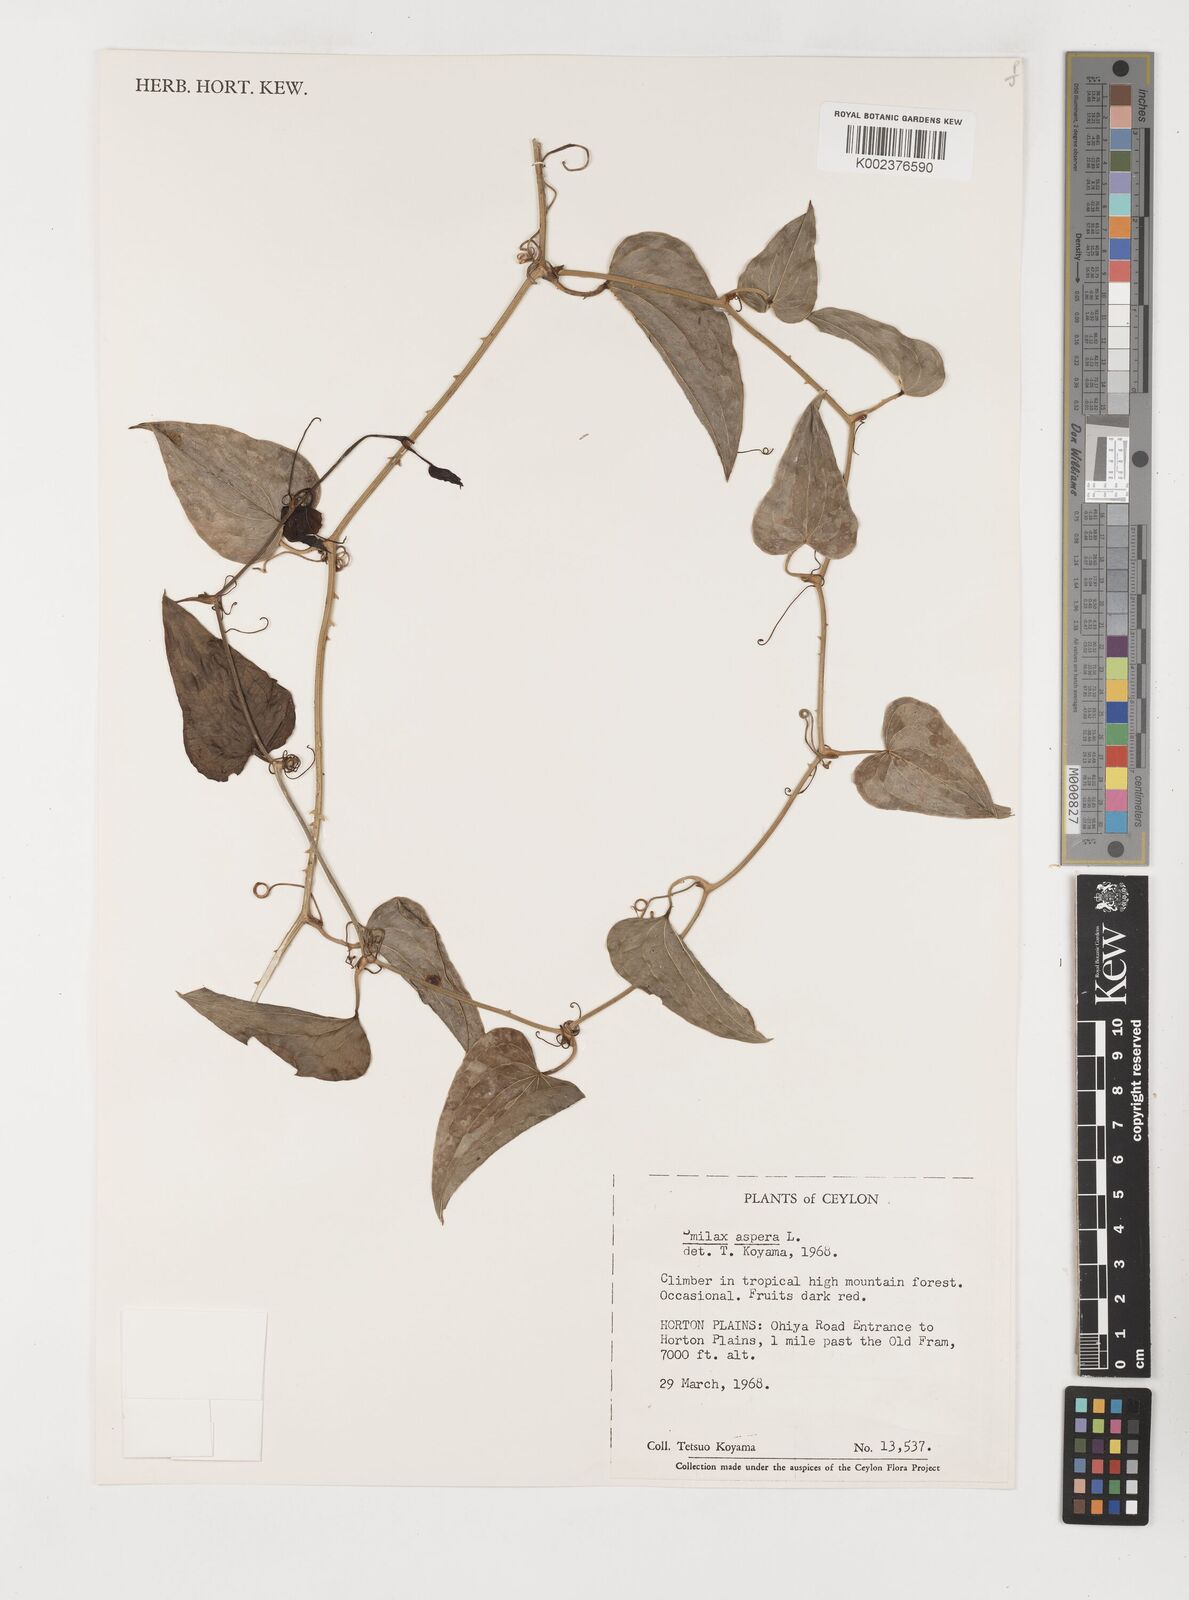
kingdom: Plantae
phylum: Tracheophyta
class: Liliopsida
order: Liliales
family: Smilacaceae
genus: Smilax
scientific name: Smilax aspera
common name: Common smilax
